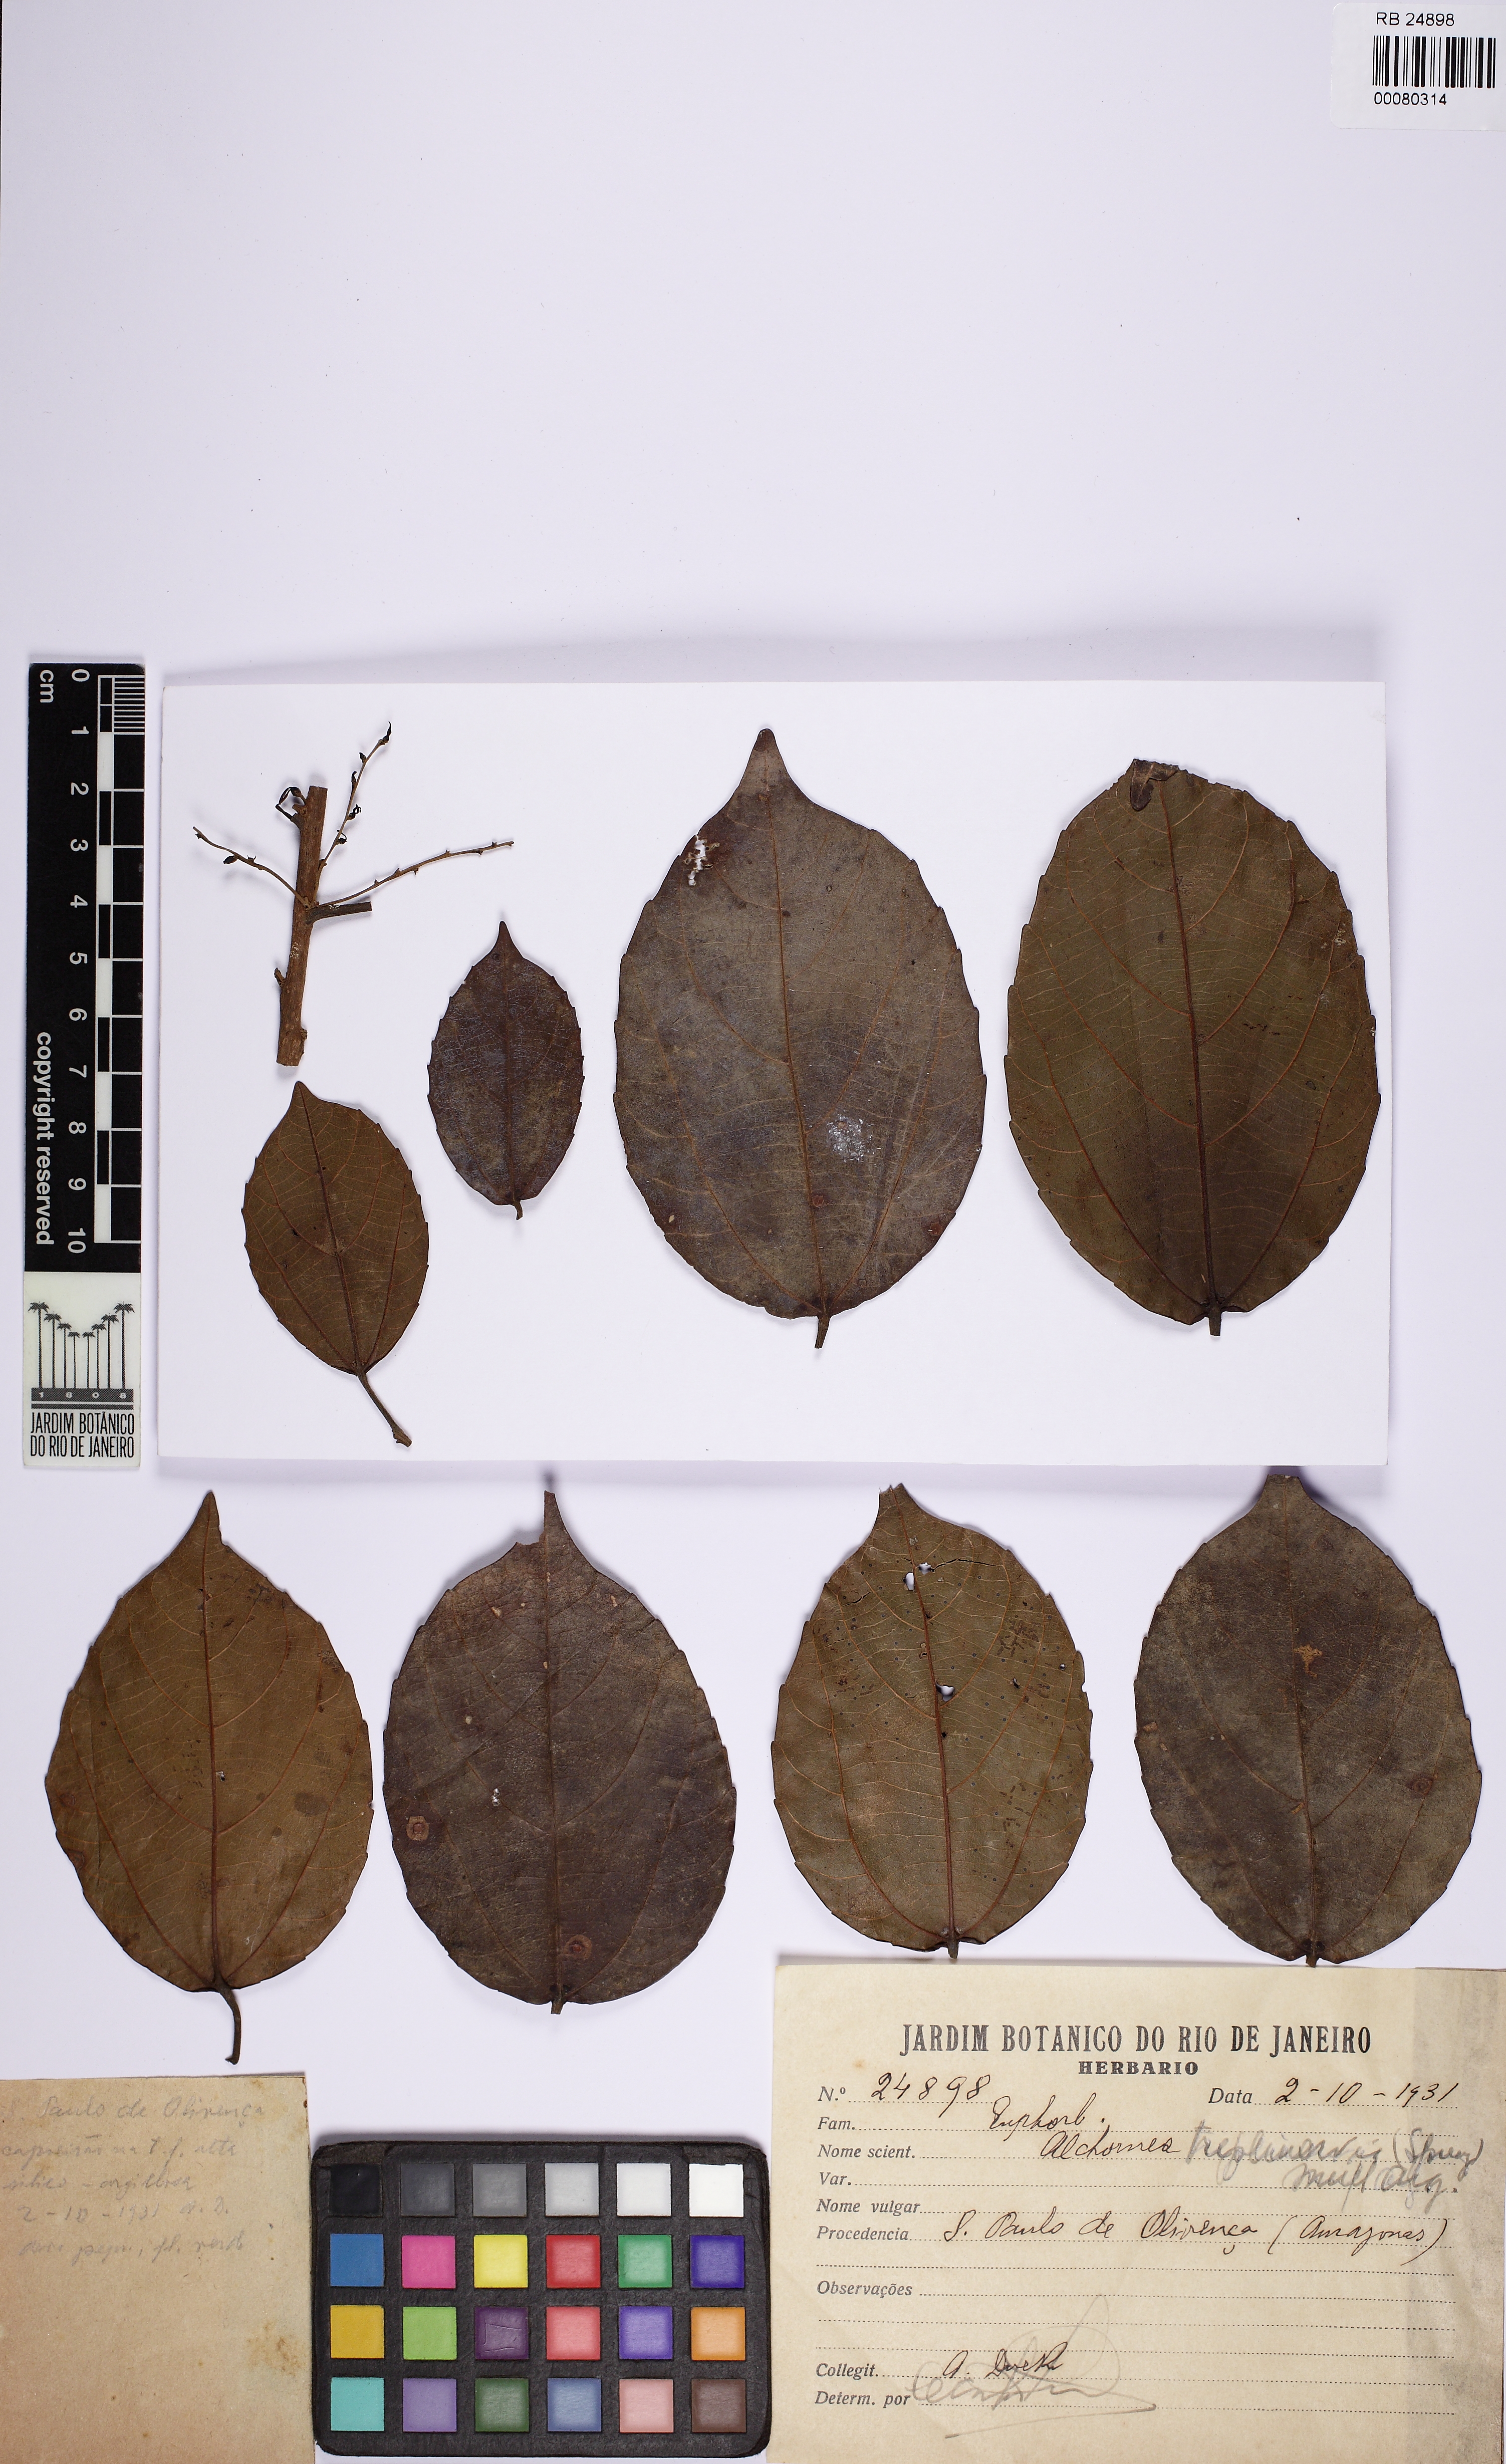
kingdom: Plantae
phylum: Tracheophyta
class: Magnoliopsida
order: Malpighiales
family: Euphorbiaceae
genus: Alchornea
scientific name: Alchornea triplinervia
